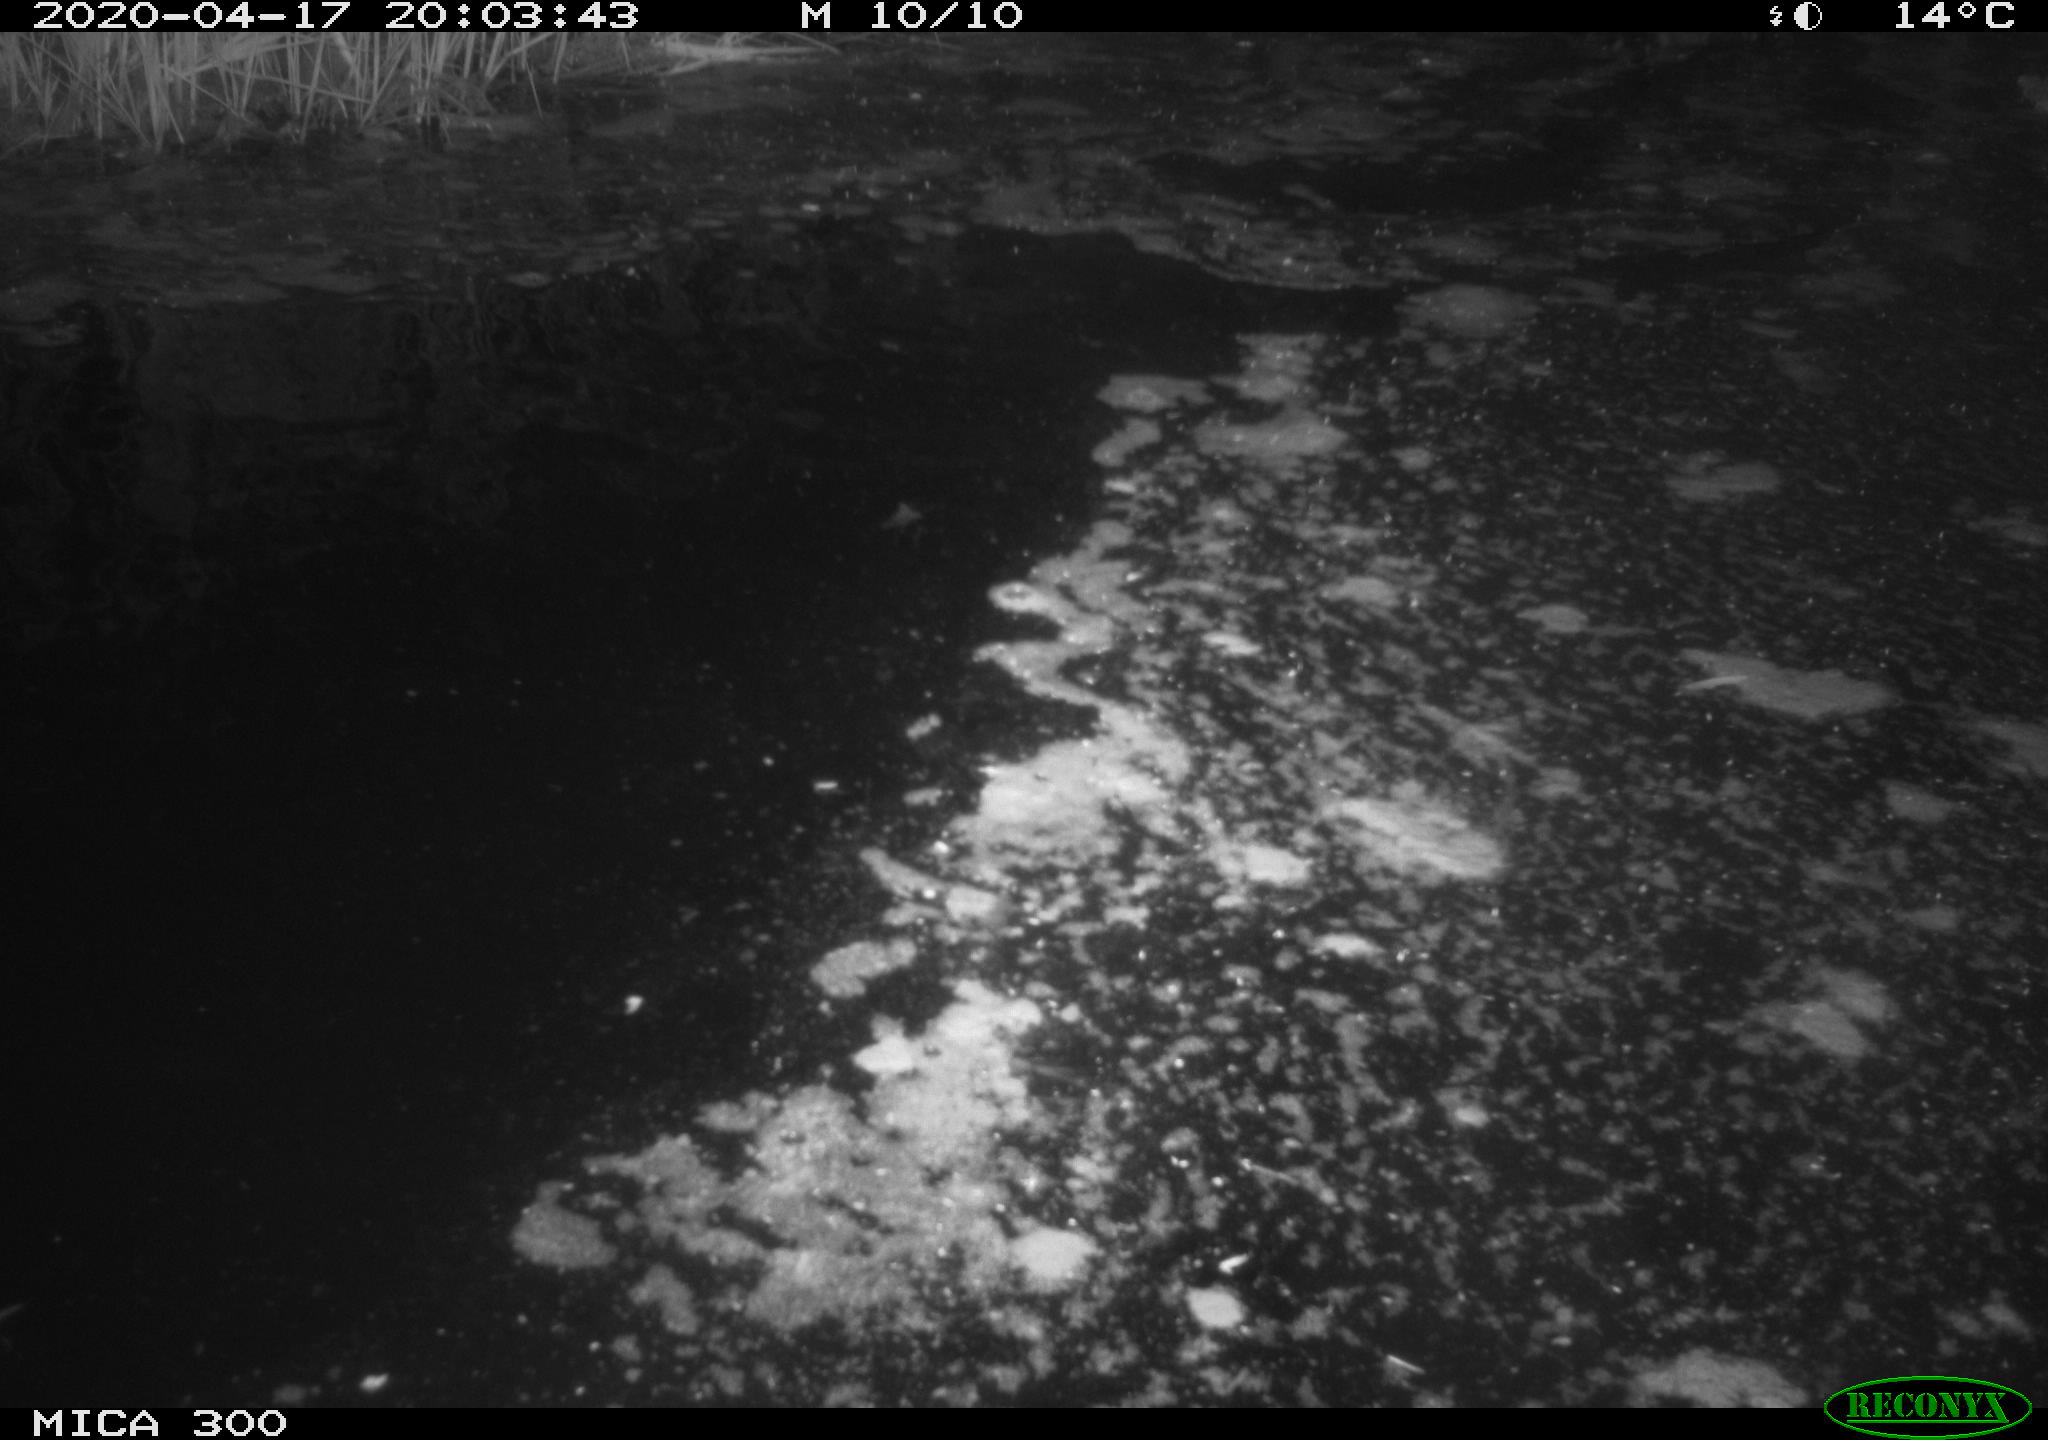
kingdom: Animalia
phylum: Chordata
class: Aves
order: Anseriformes
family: Anatidae
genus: Anas
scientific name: Anas platyrhynchos
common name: Mallard
